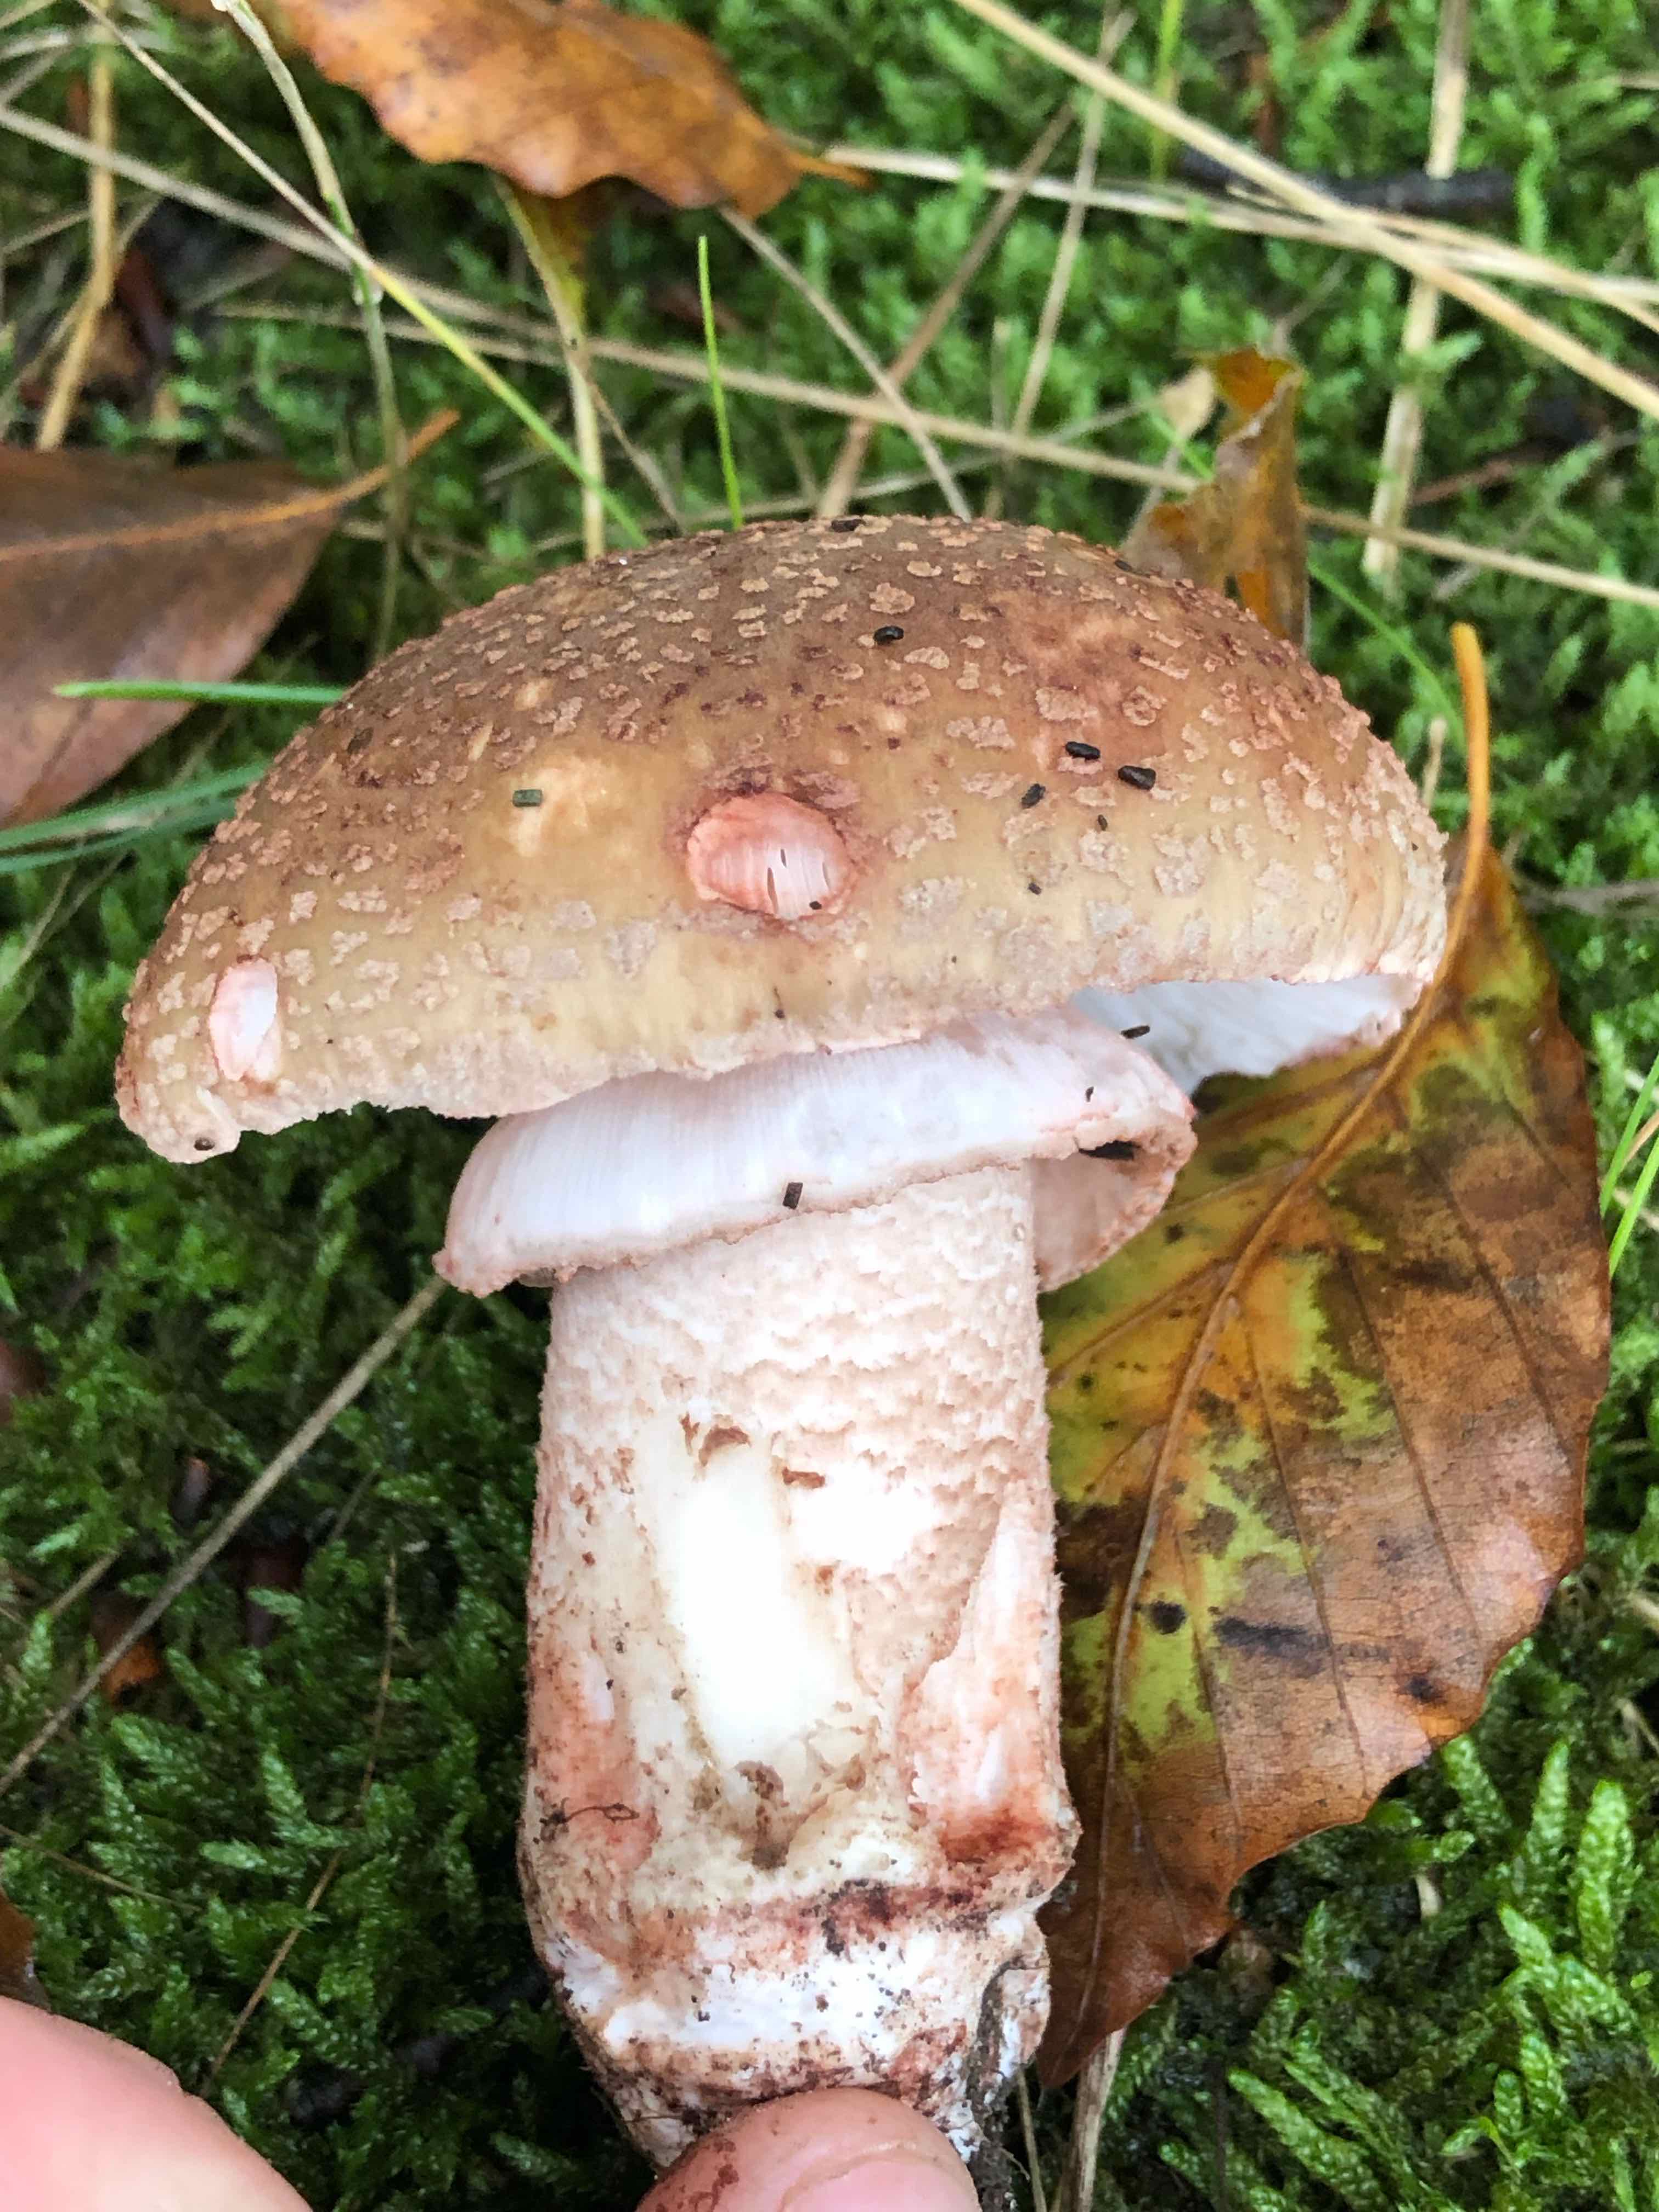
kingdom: Fungi
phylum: Basidiomycota
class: Agaricomycetes
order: Agaricales
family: Amanitaceae
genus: Amanita
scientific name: Amanita rubescens
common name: rødmende fluesvamp
